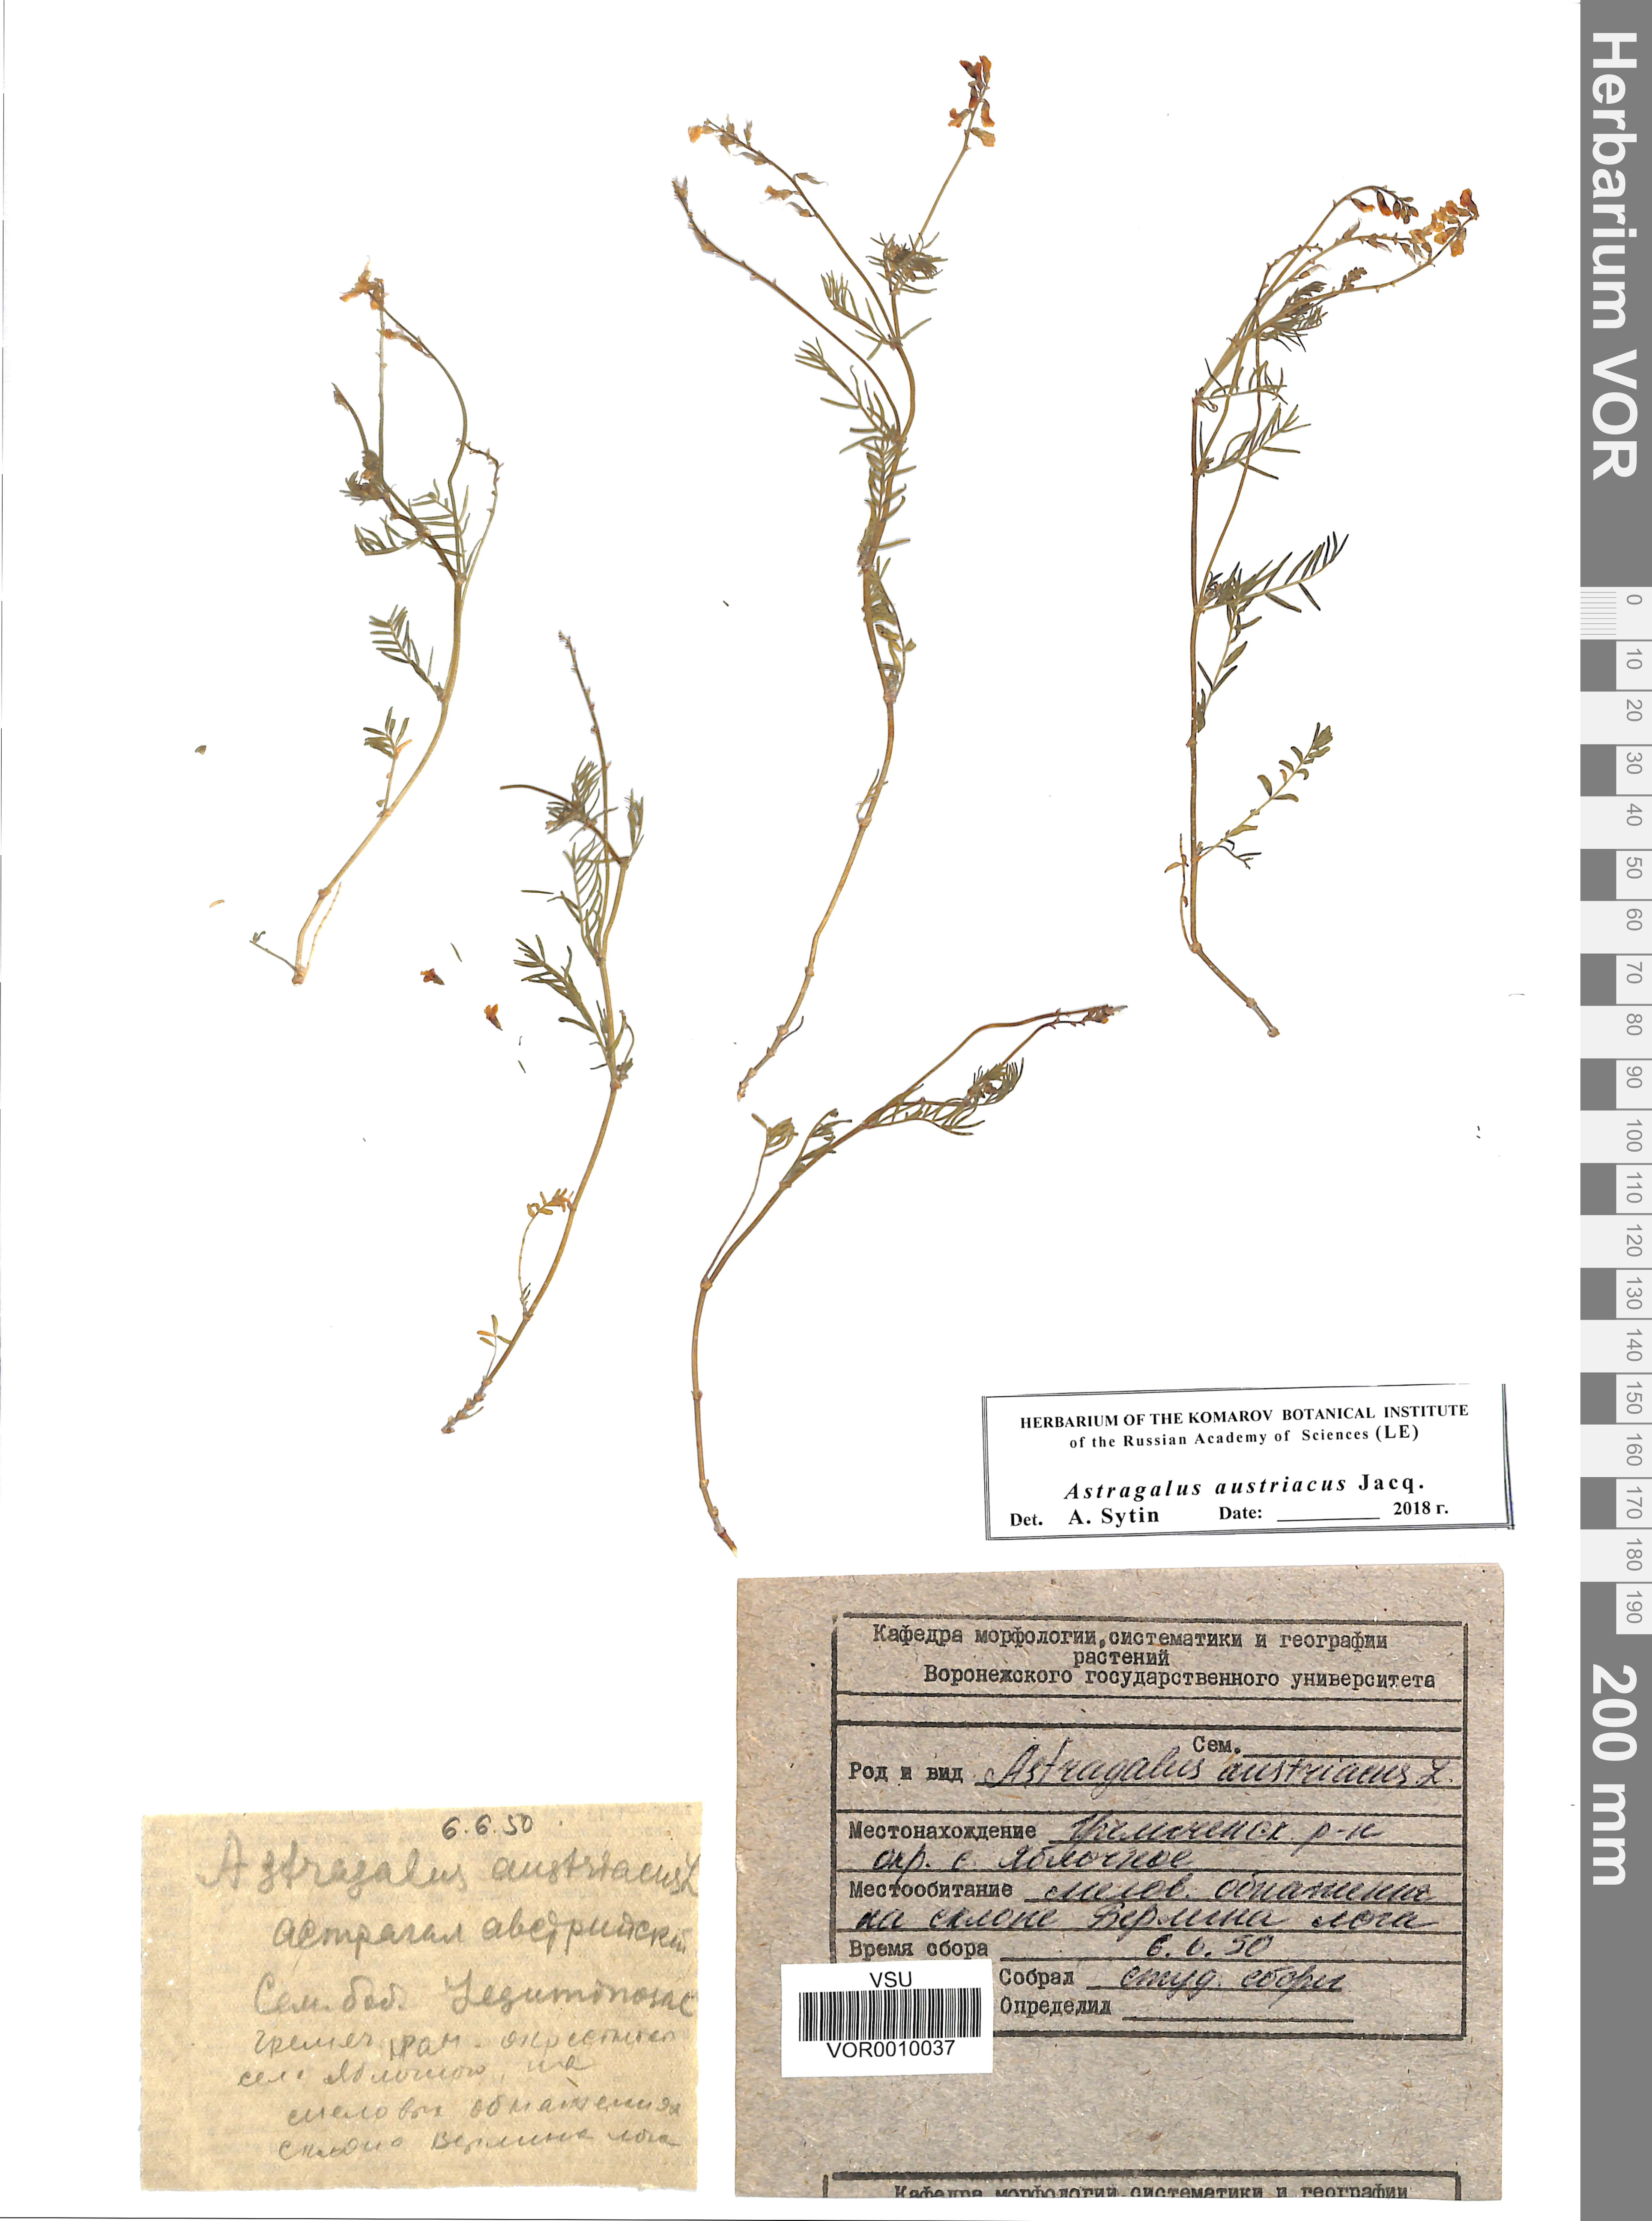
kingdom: Plantae
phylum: Tracheophyta
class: Magnoliopsida
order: Fabales
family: Fabaceae
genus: Astragalus
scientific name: Astragalus austriacus
